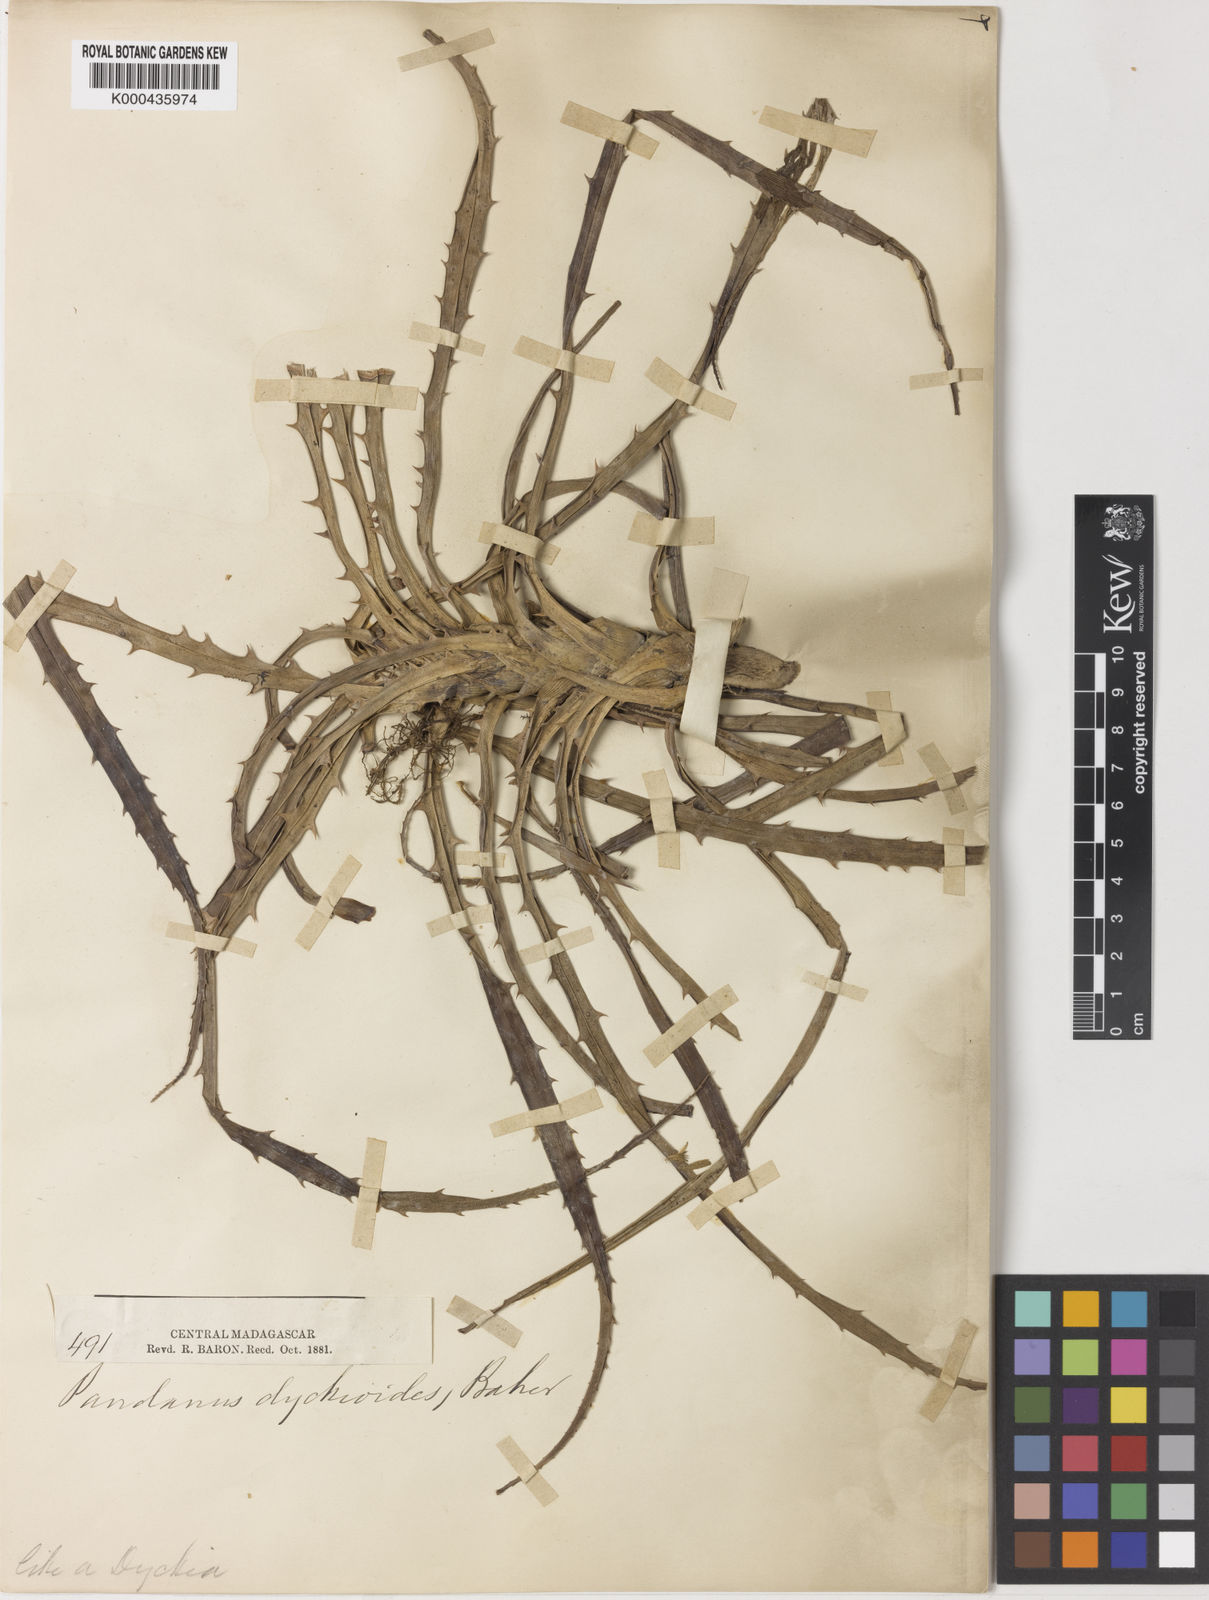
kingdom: Plantae
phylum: Tracheophyta
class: Liliopsida
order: Pandanales
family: Pandanaceae
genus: Pandanus
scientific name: Pandanus dyckioides
